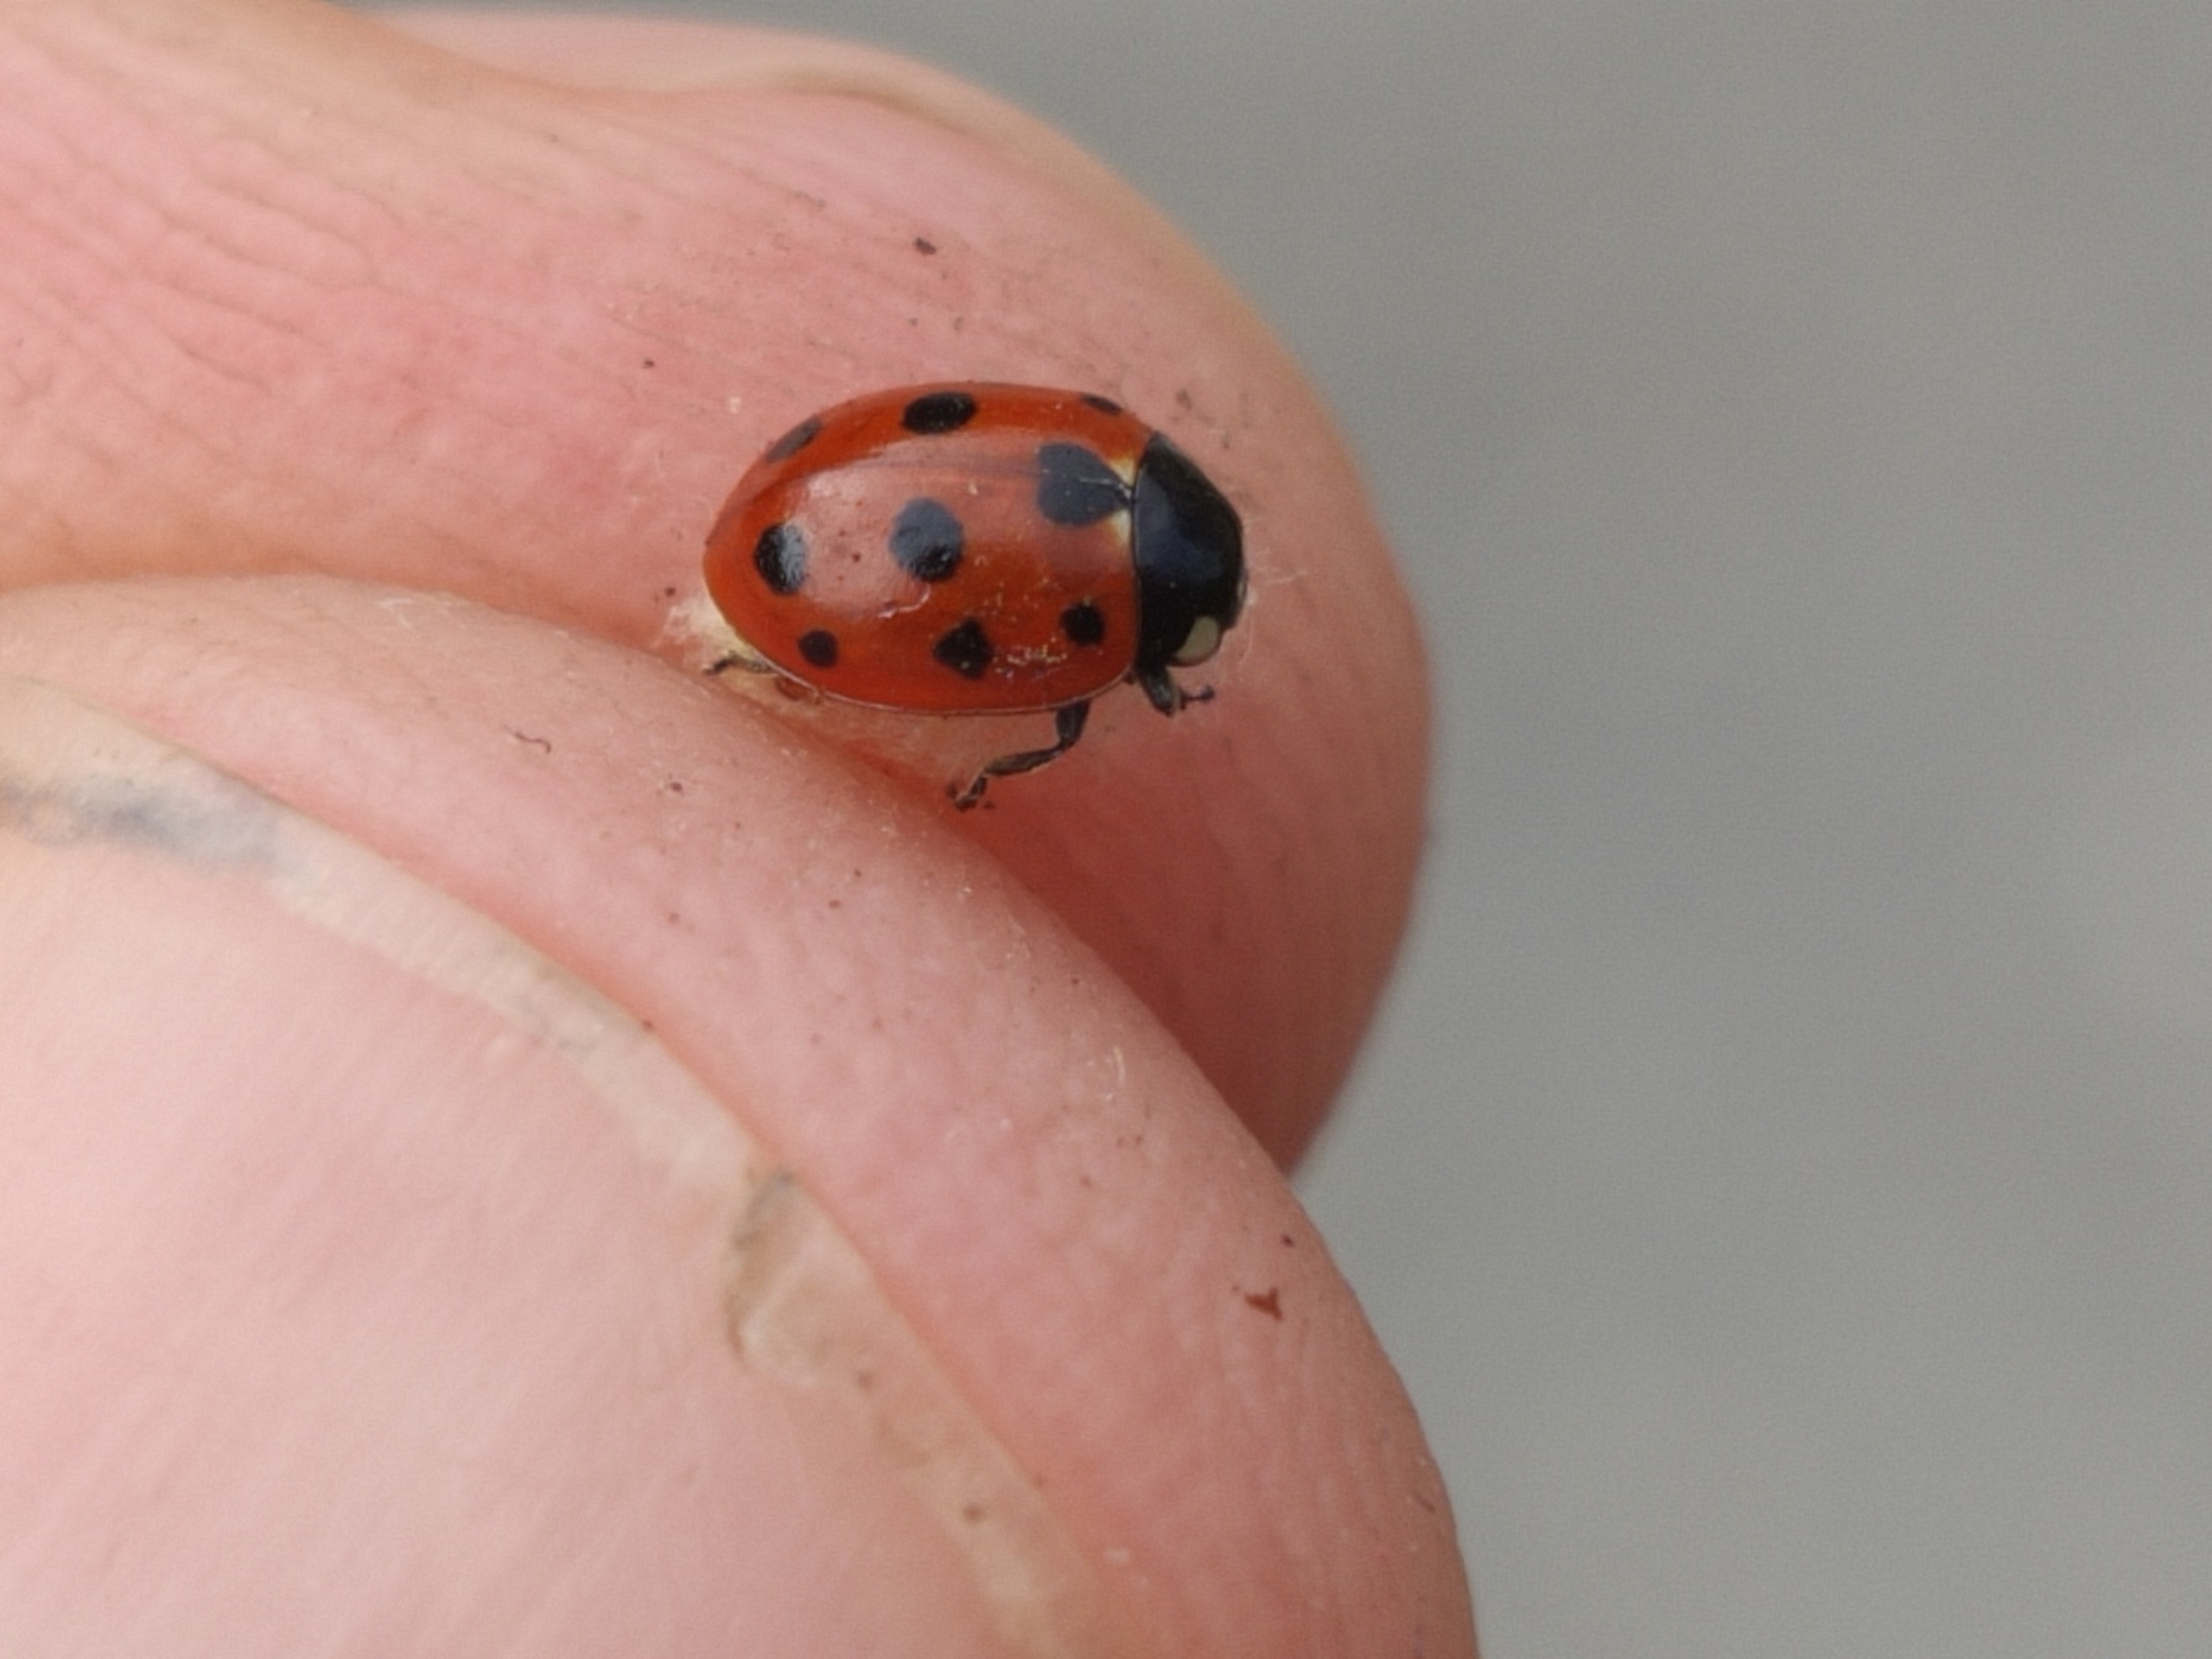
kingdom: Animalia
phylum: Arthropoda
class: Insecta
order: Coleoptera
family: Coccinellidae
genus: Coccinella
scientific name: Coccinella undecimpunctata
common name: Elleveplettet mariehøne
